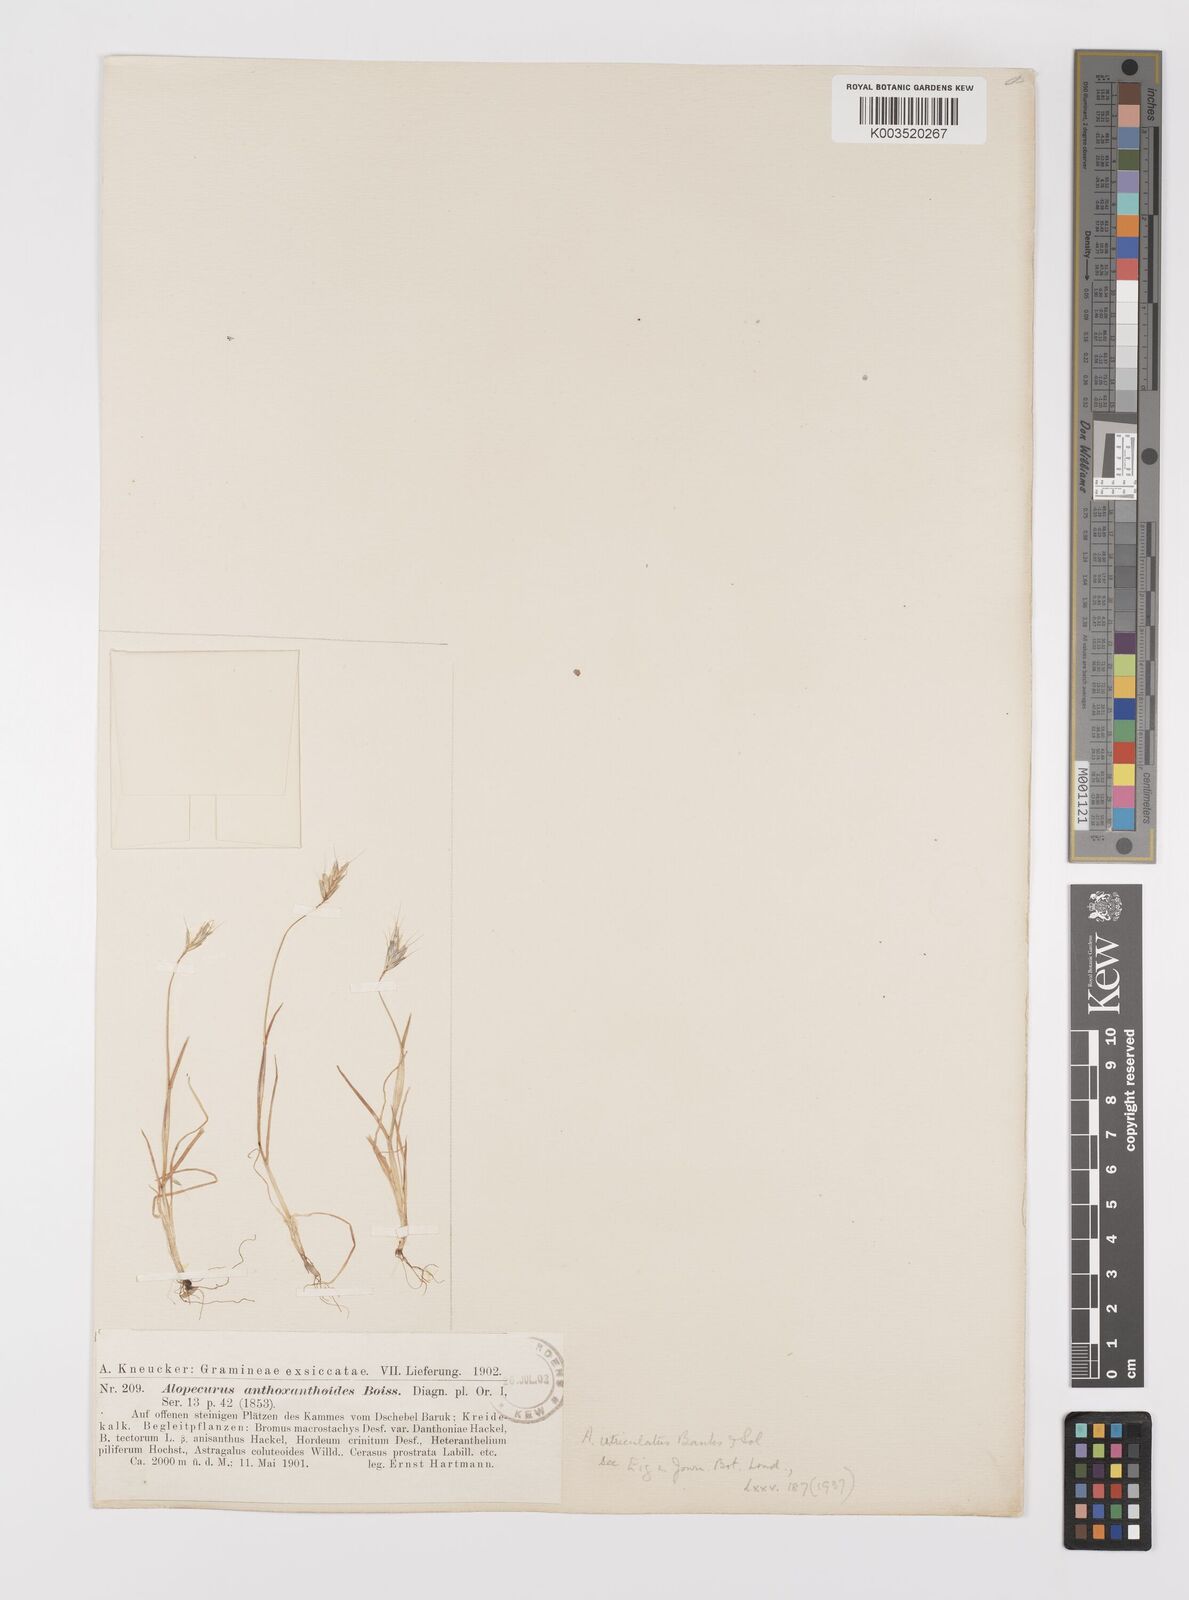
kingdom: Plantae
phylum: Tracheophyta
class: Liliopsida
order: Poales
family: Poaceae
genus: Alopecurus
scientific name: Alopecurus utriculatus
